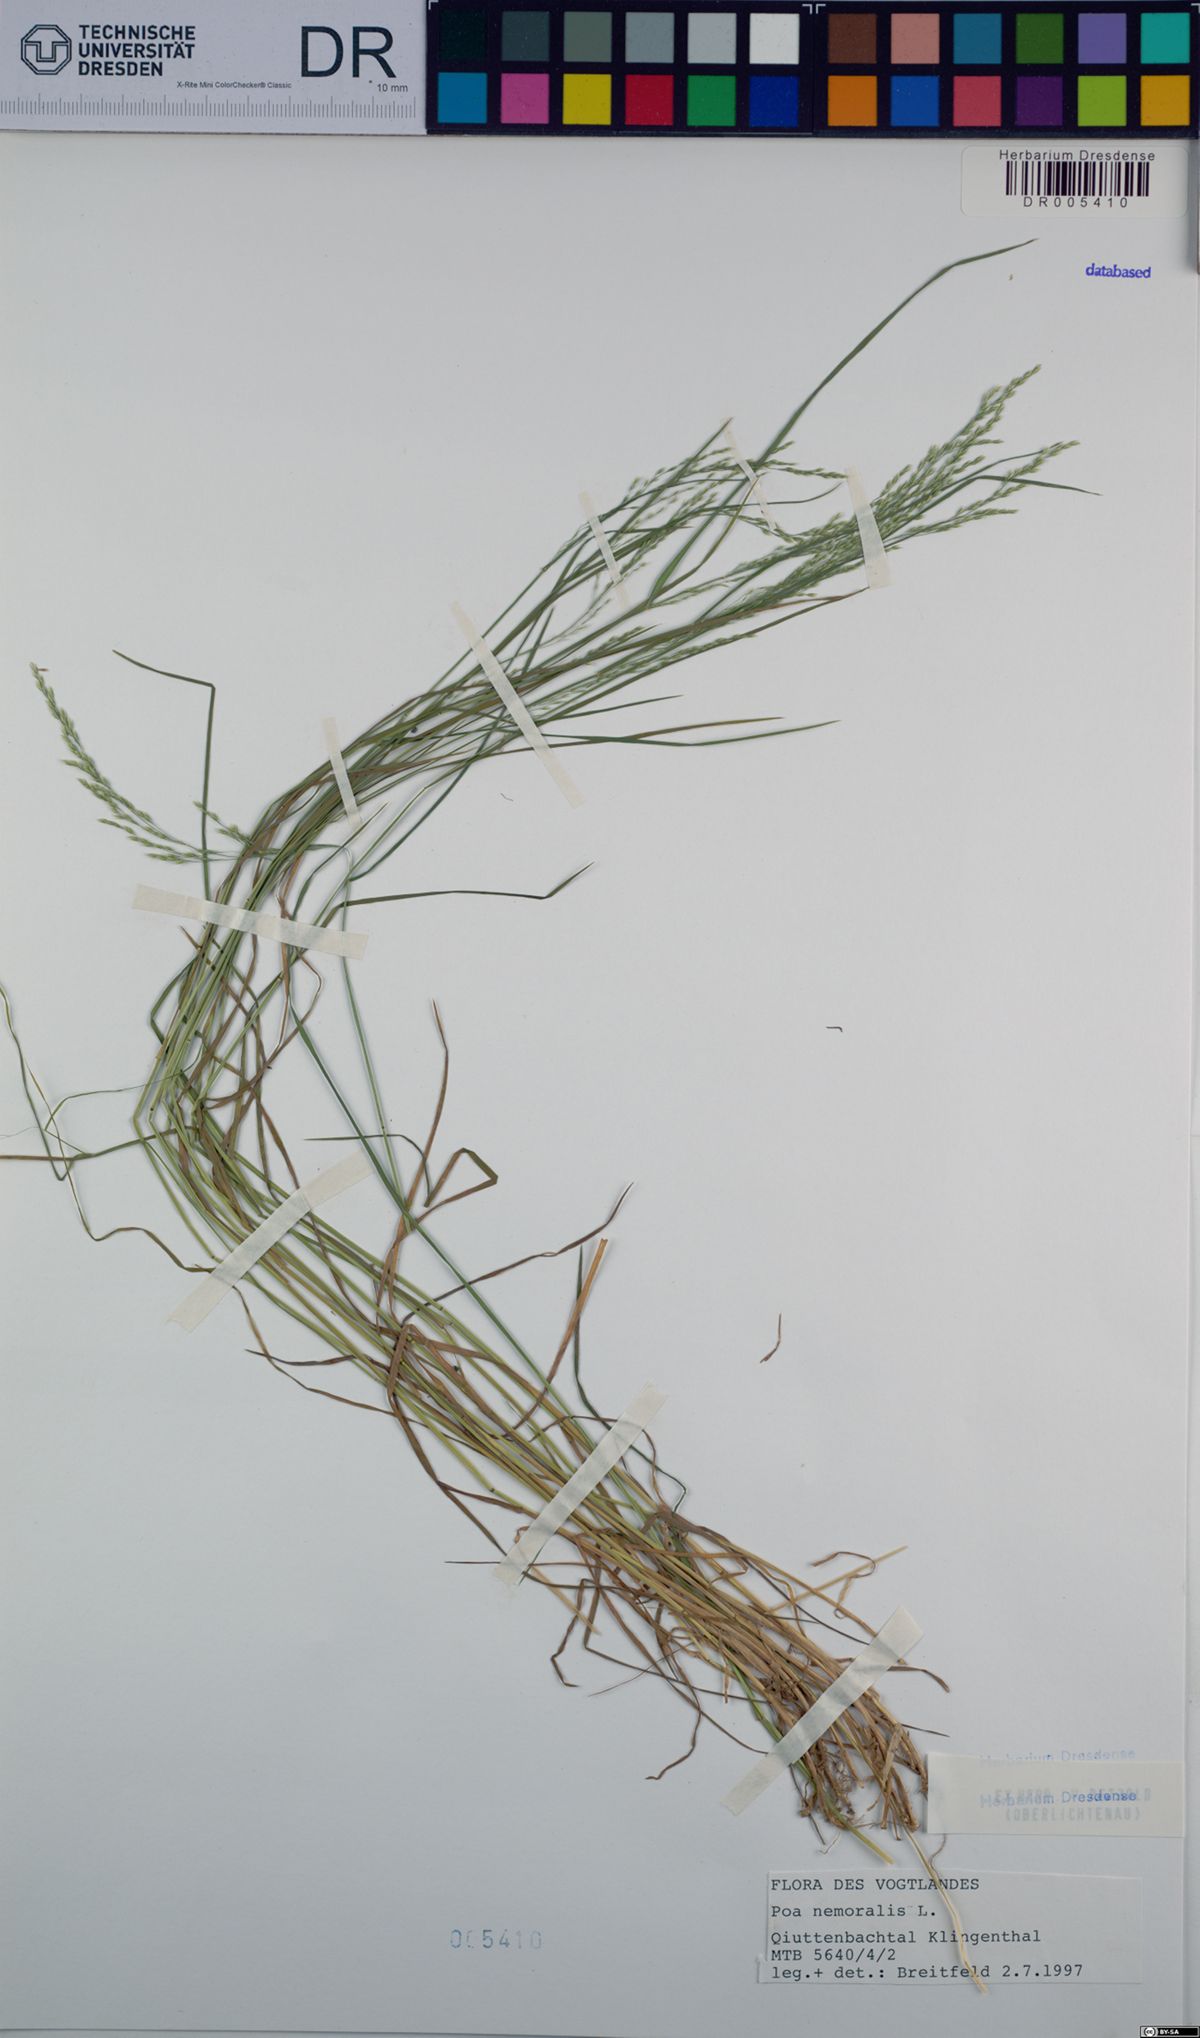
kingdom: Plantae
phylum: Tracheophyta
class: Liliopsida
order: Poales
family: Poaceae
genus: Poa
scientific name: Poa nemoralis
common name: Wood bluegrass
